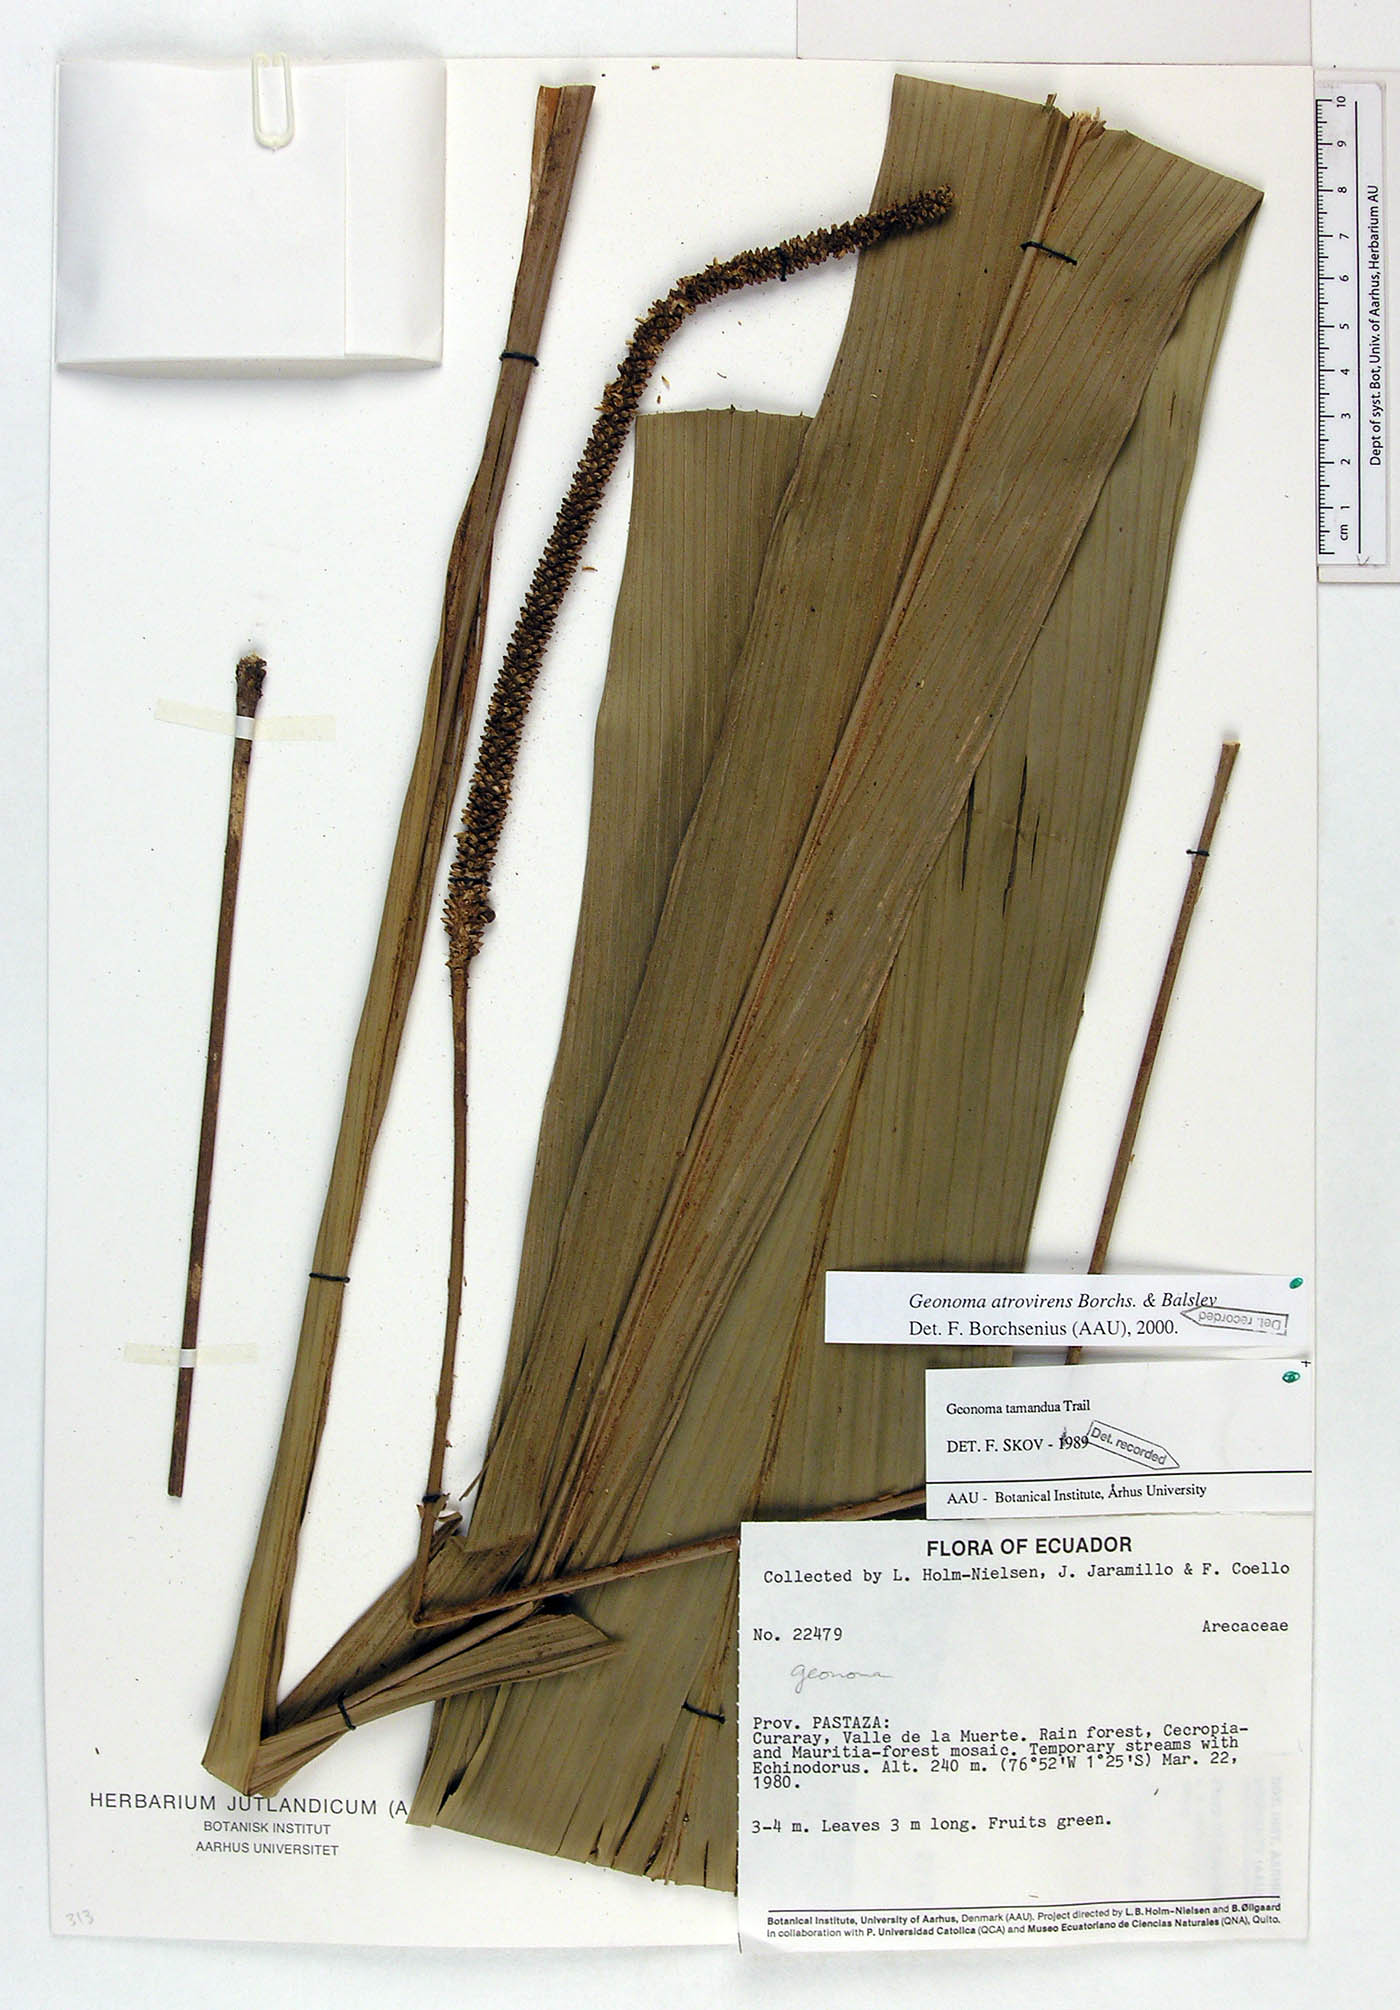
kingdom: Plantae
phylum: Tracheophyta
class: Liliopsida
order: Arecales
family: Arecaceae
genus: Geonoma
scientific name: Geonoma macrostachys
